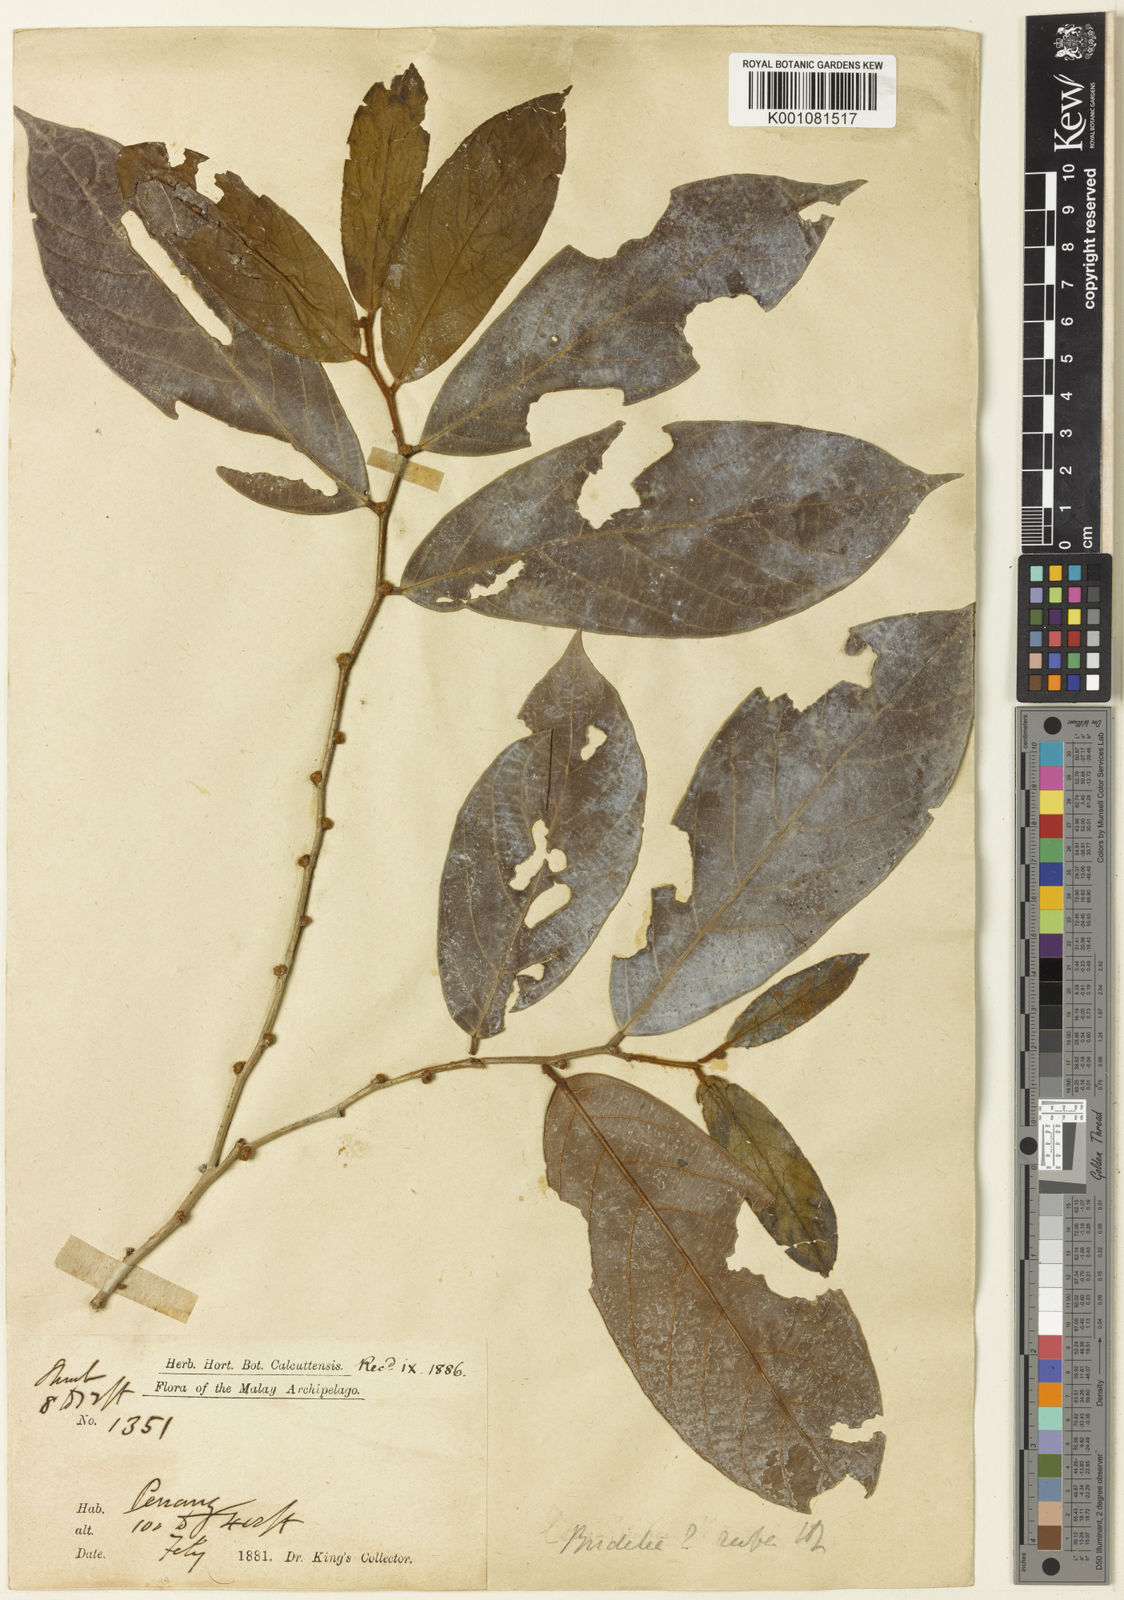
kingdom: Plantae
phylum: Tracheophyta
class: Magnoliopsida
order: Malpighiales
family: Phyllanthaceae
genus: Cleistanthus
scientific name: Cleistanthus rufus
